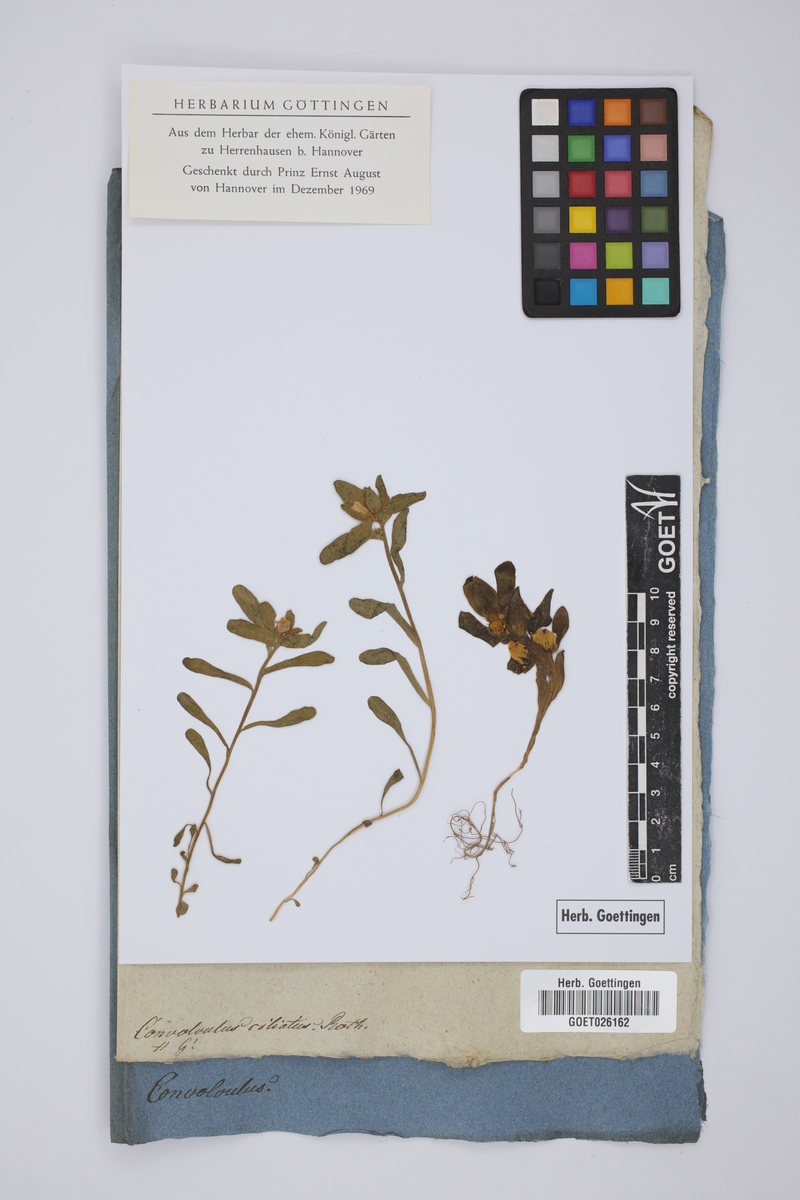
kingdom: Plantae
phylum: Tracheophyta
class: Magnoliopsida
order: Solanales
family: Convolvulaceae
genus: Convolvulus
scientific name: Convolvulus humilis
